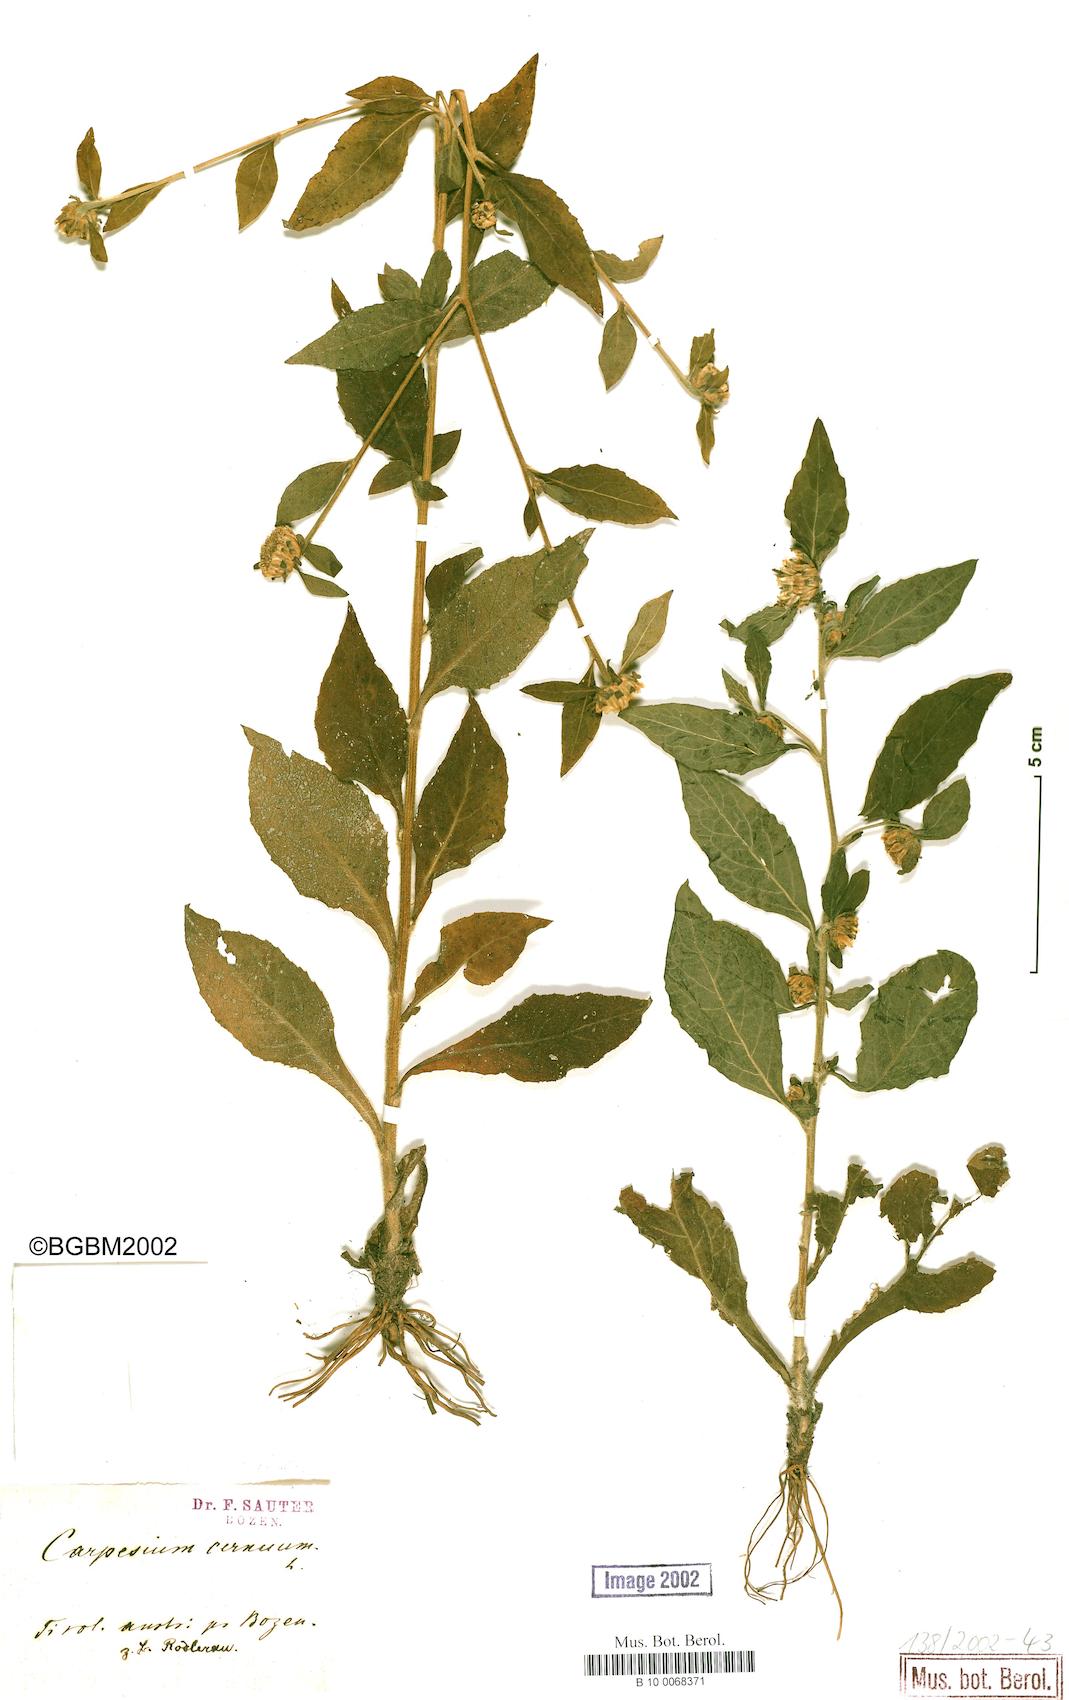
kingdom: Plantae
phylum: Tracheophyta
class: Magnoliopsida
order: Asterales
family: Asteraceae
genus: Carpesium
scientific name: Carpesium cernuum
